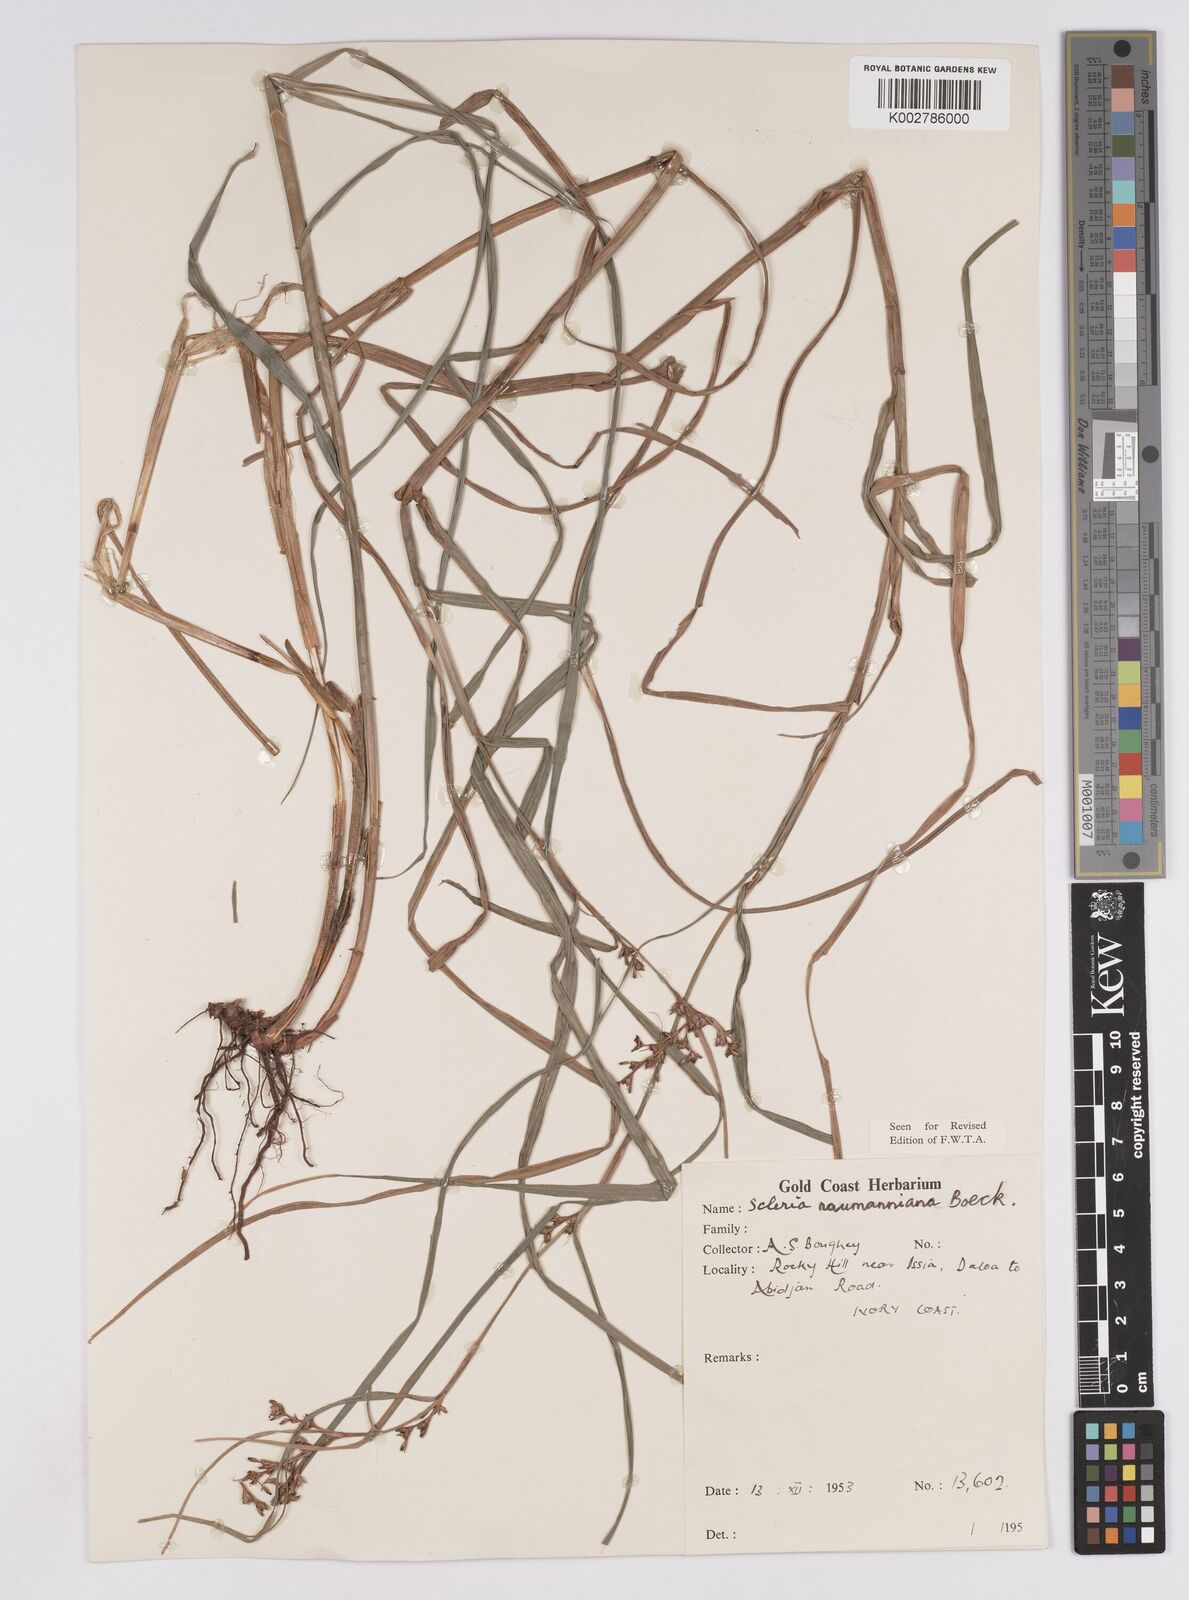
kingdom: Plantae
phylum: Tracheophyta
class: Liliopsida
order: Poales
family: Cyperaceae
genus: Scleria
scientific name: Scleria naumanniana
